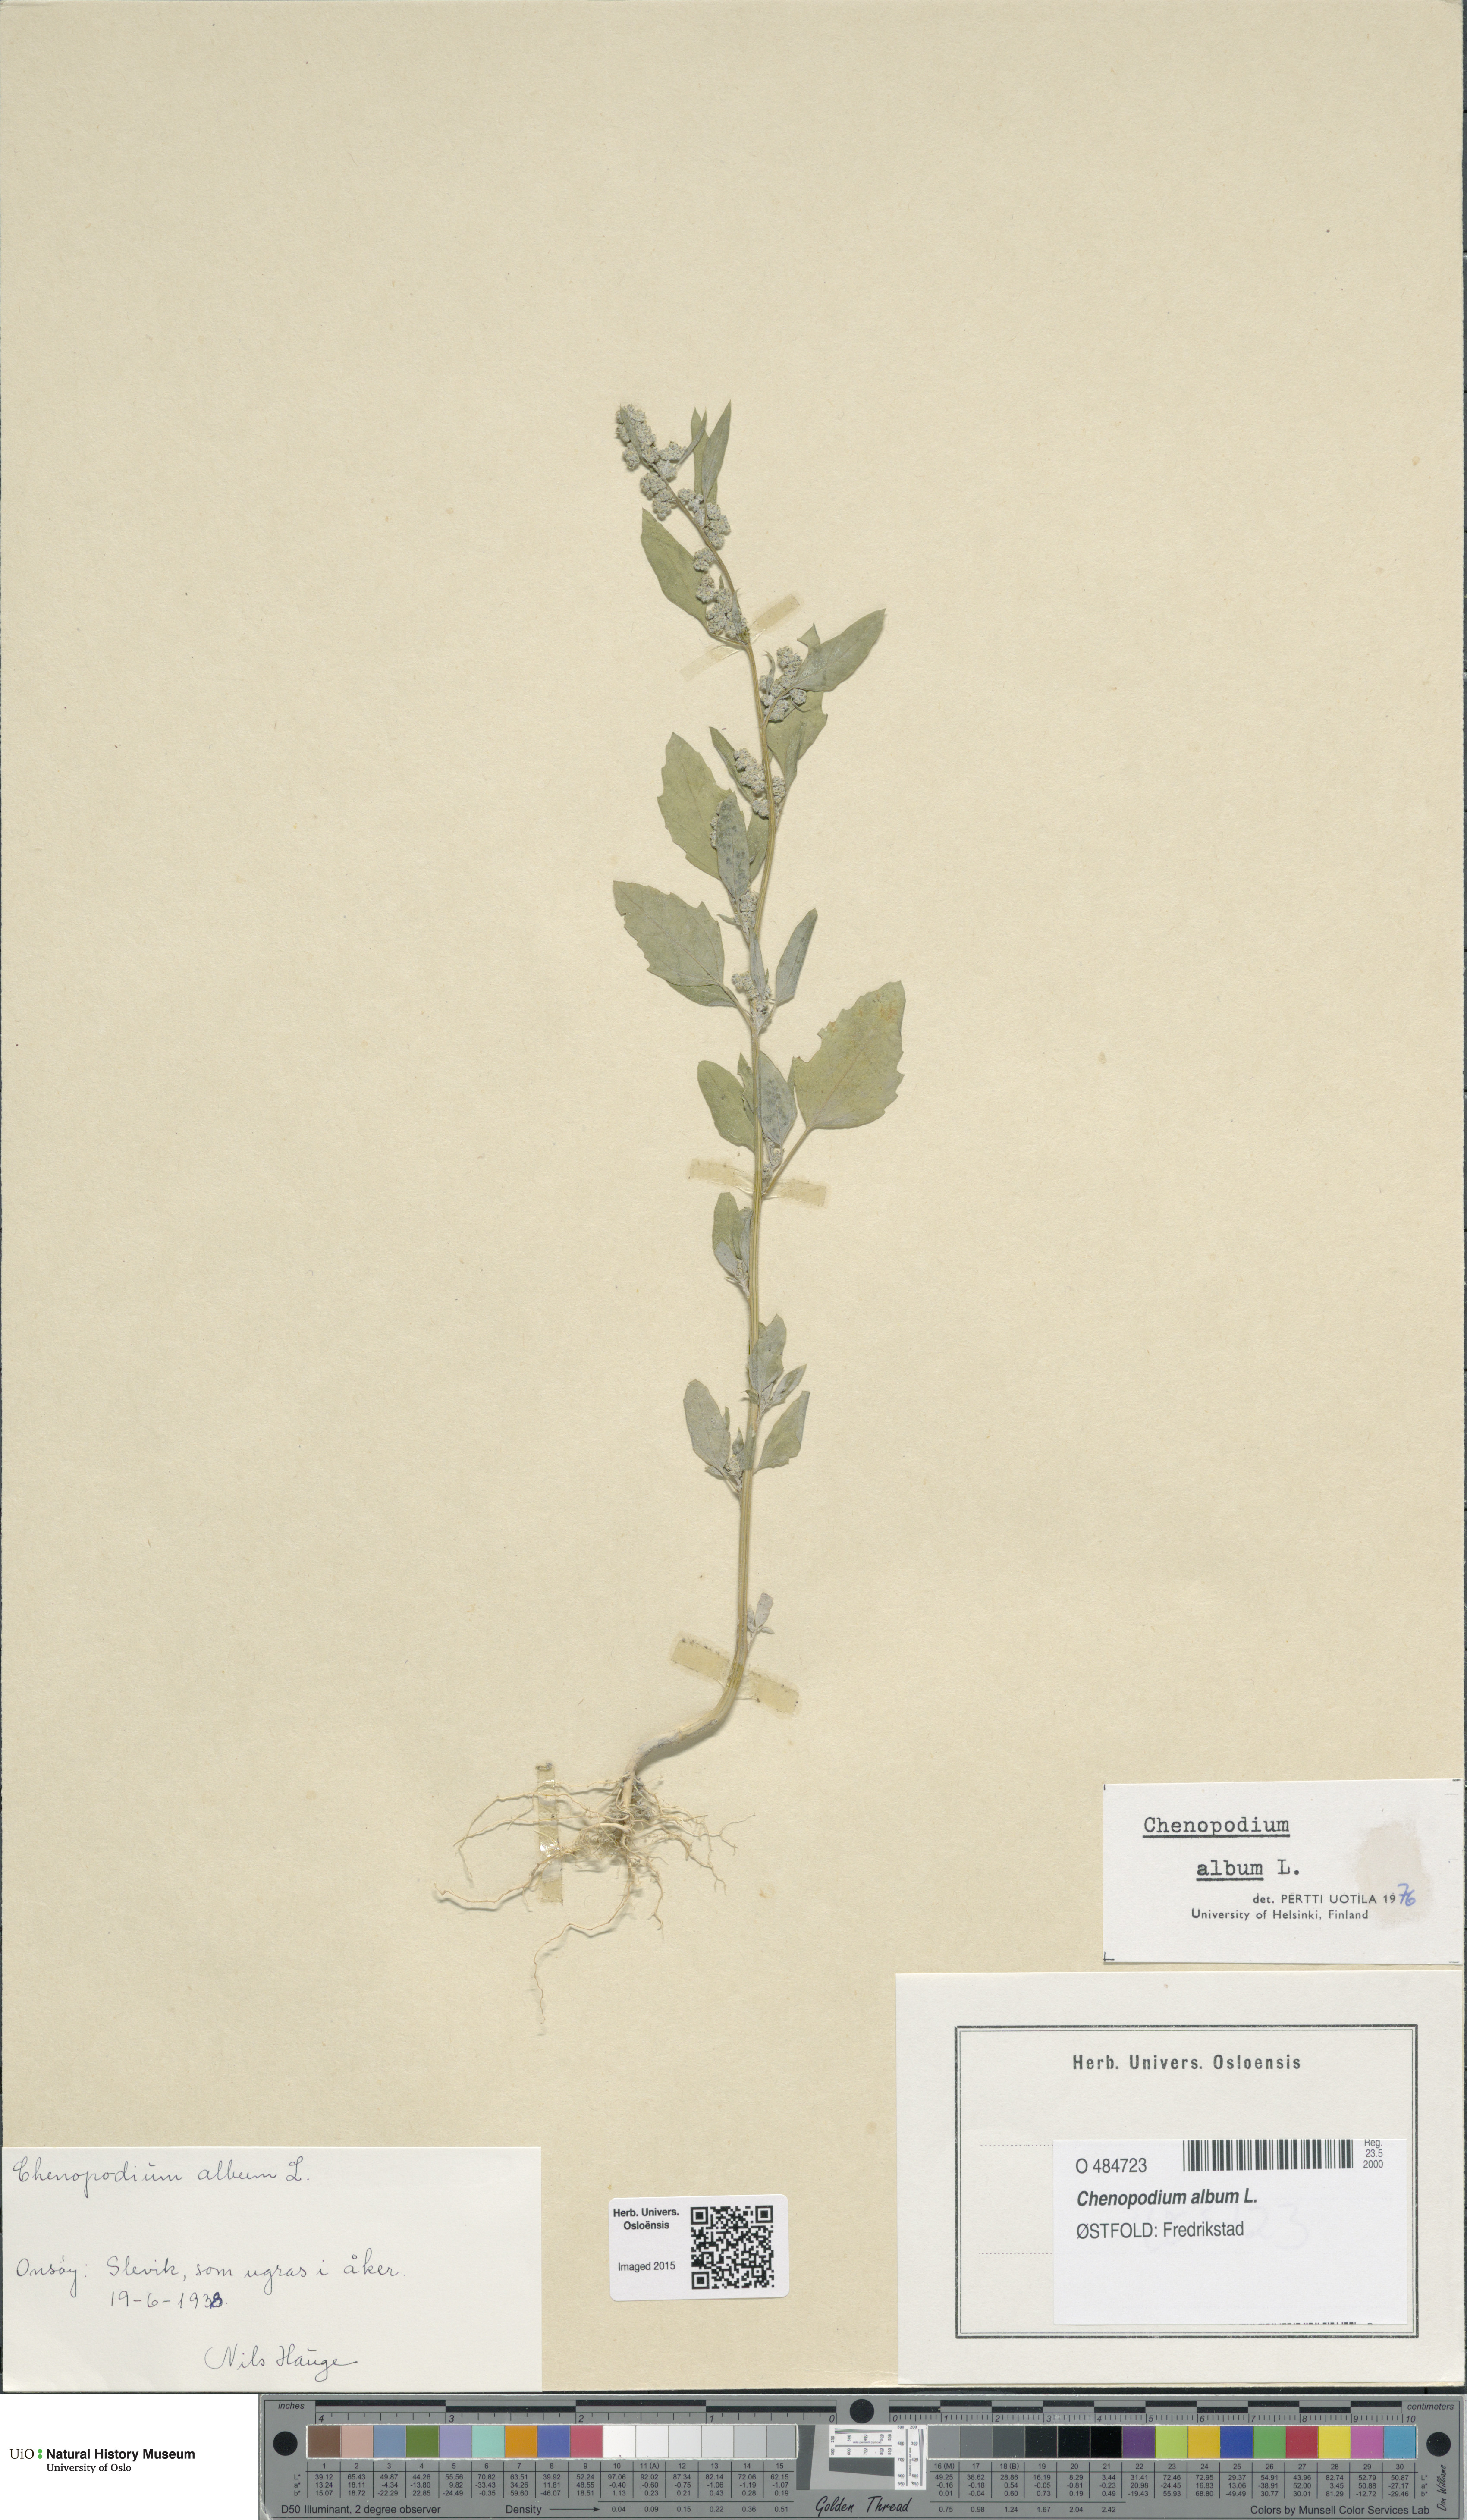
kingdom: Plantae
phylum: Tracheophyta
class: Magnoliopsida
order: Caryophyllales
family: Amaranthaceae
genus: Chenopodium
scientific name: Chenopodium album
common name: Fat-hen
